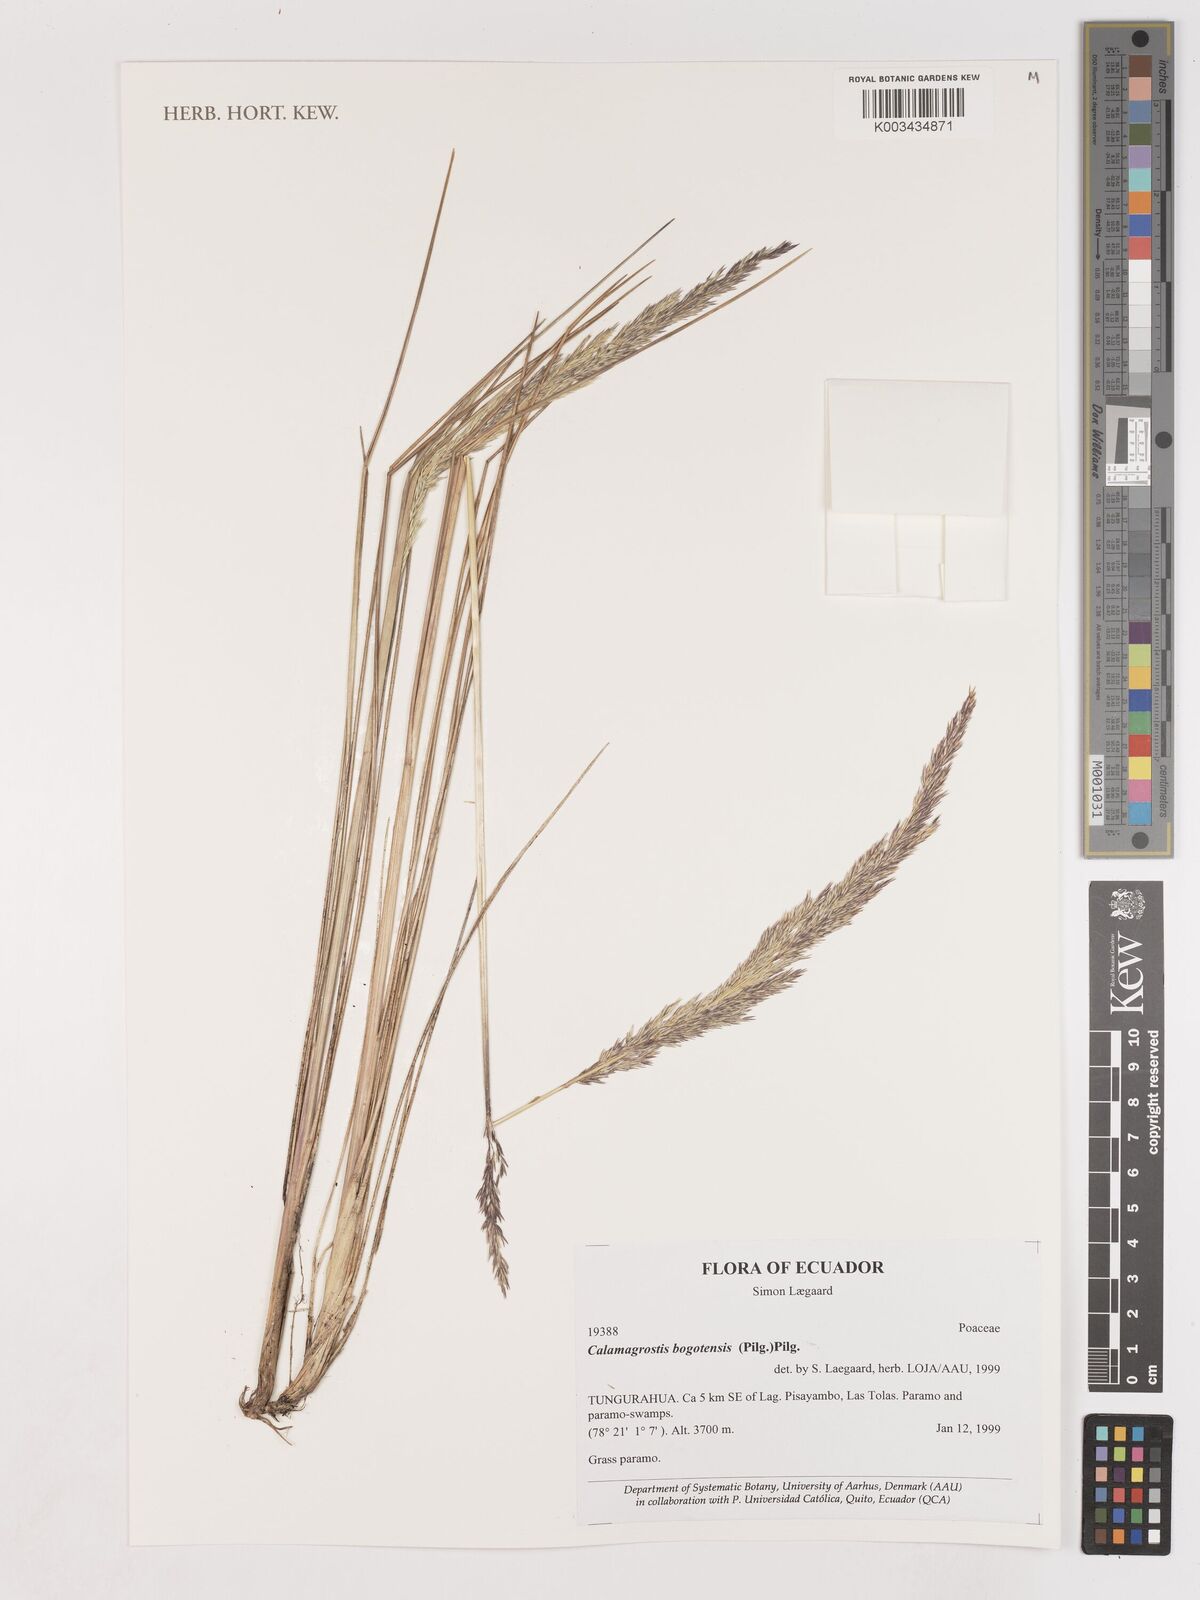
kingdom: Plantae
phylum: Tracheophyta
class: Liliopsida
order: Poales
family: Poaceae
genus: Calamagrostis
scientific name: Calamagrostis bogotensis
